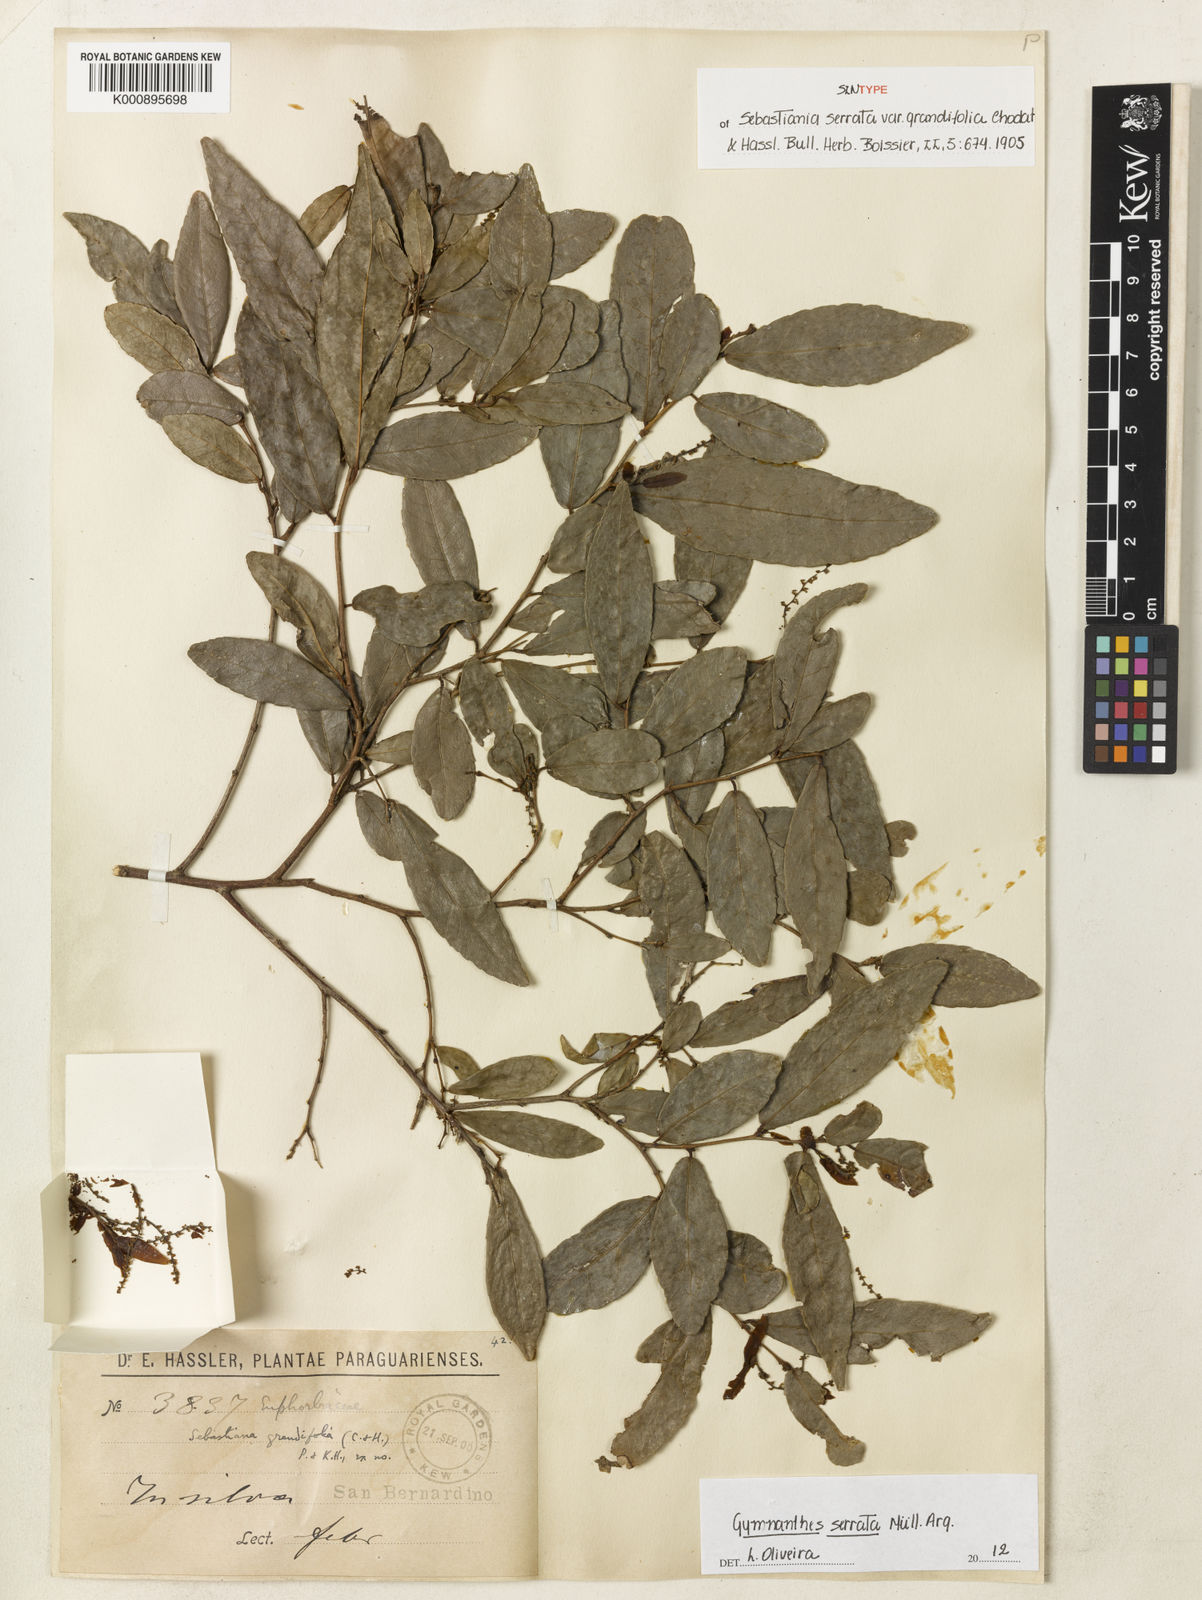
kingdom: Plantae
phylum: Tracheophyta
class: Magnoliopsida
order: Malpighiales
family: Euphorbiaceae
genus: Gymnanthes
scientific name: Gymnanthes
